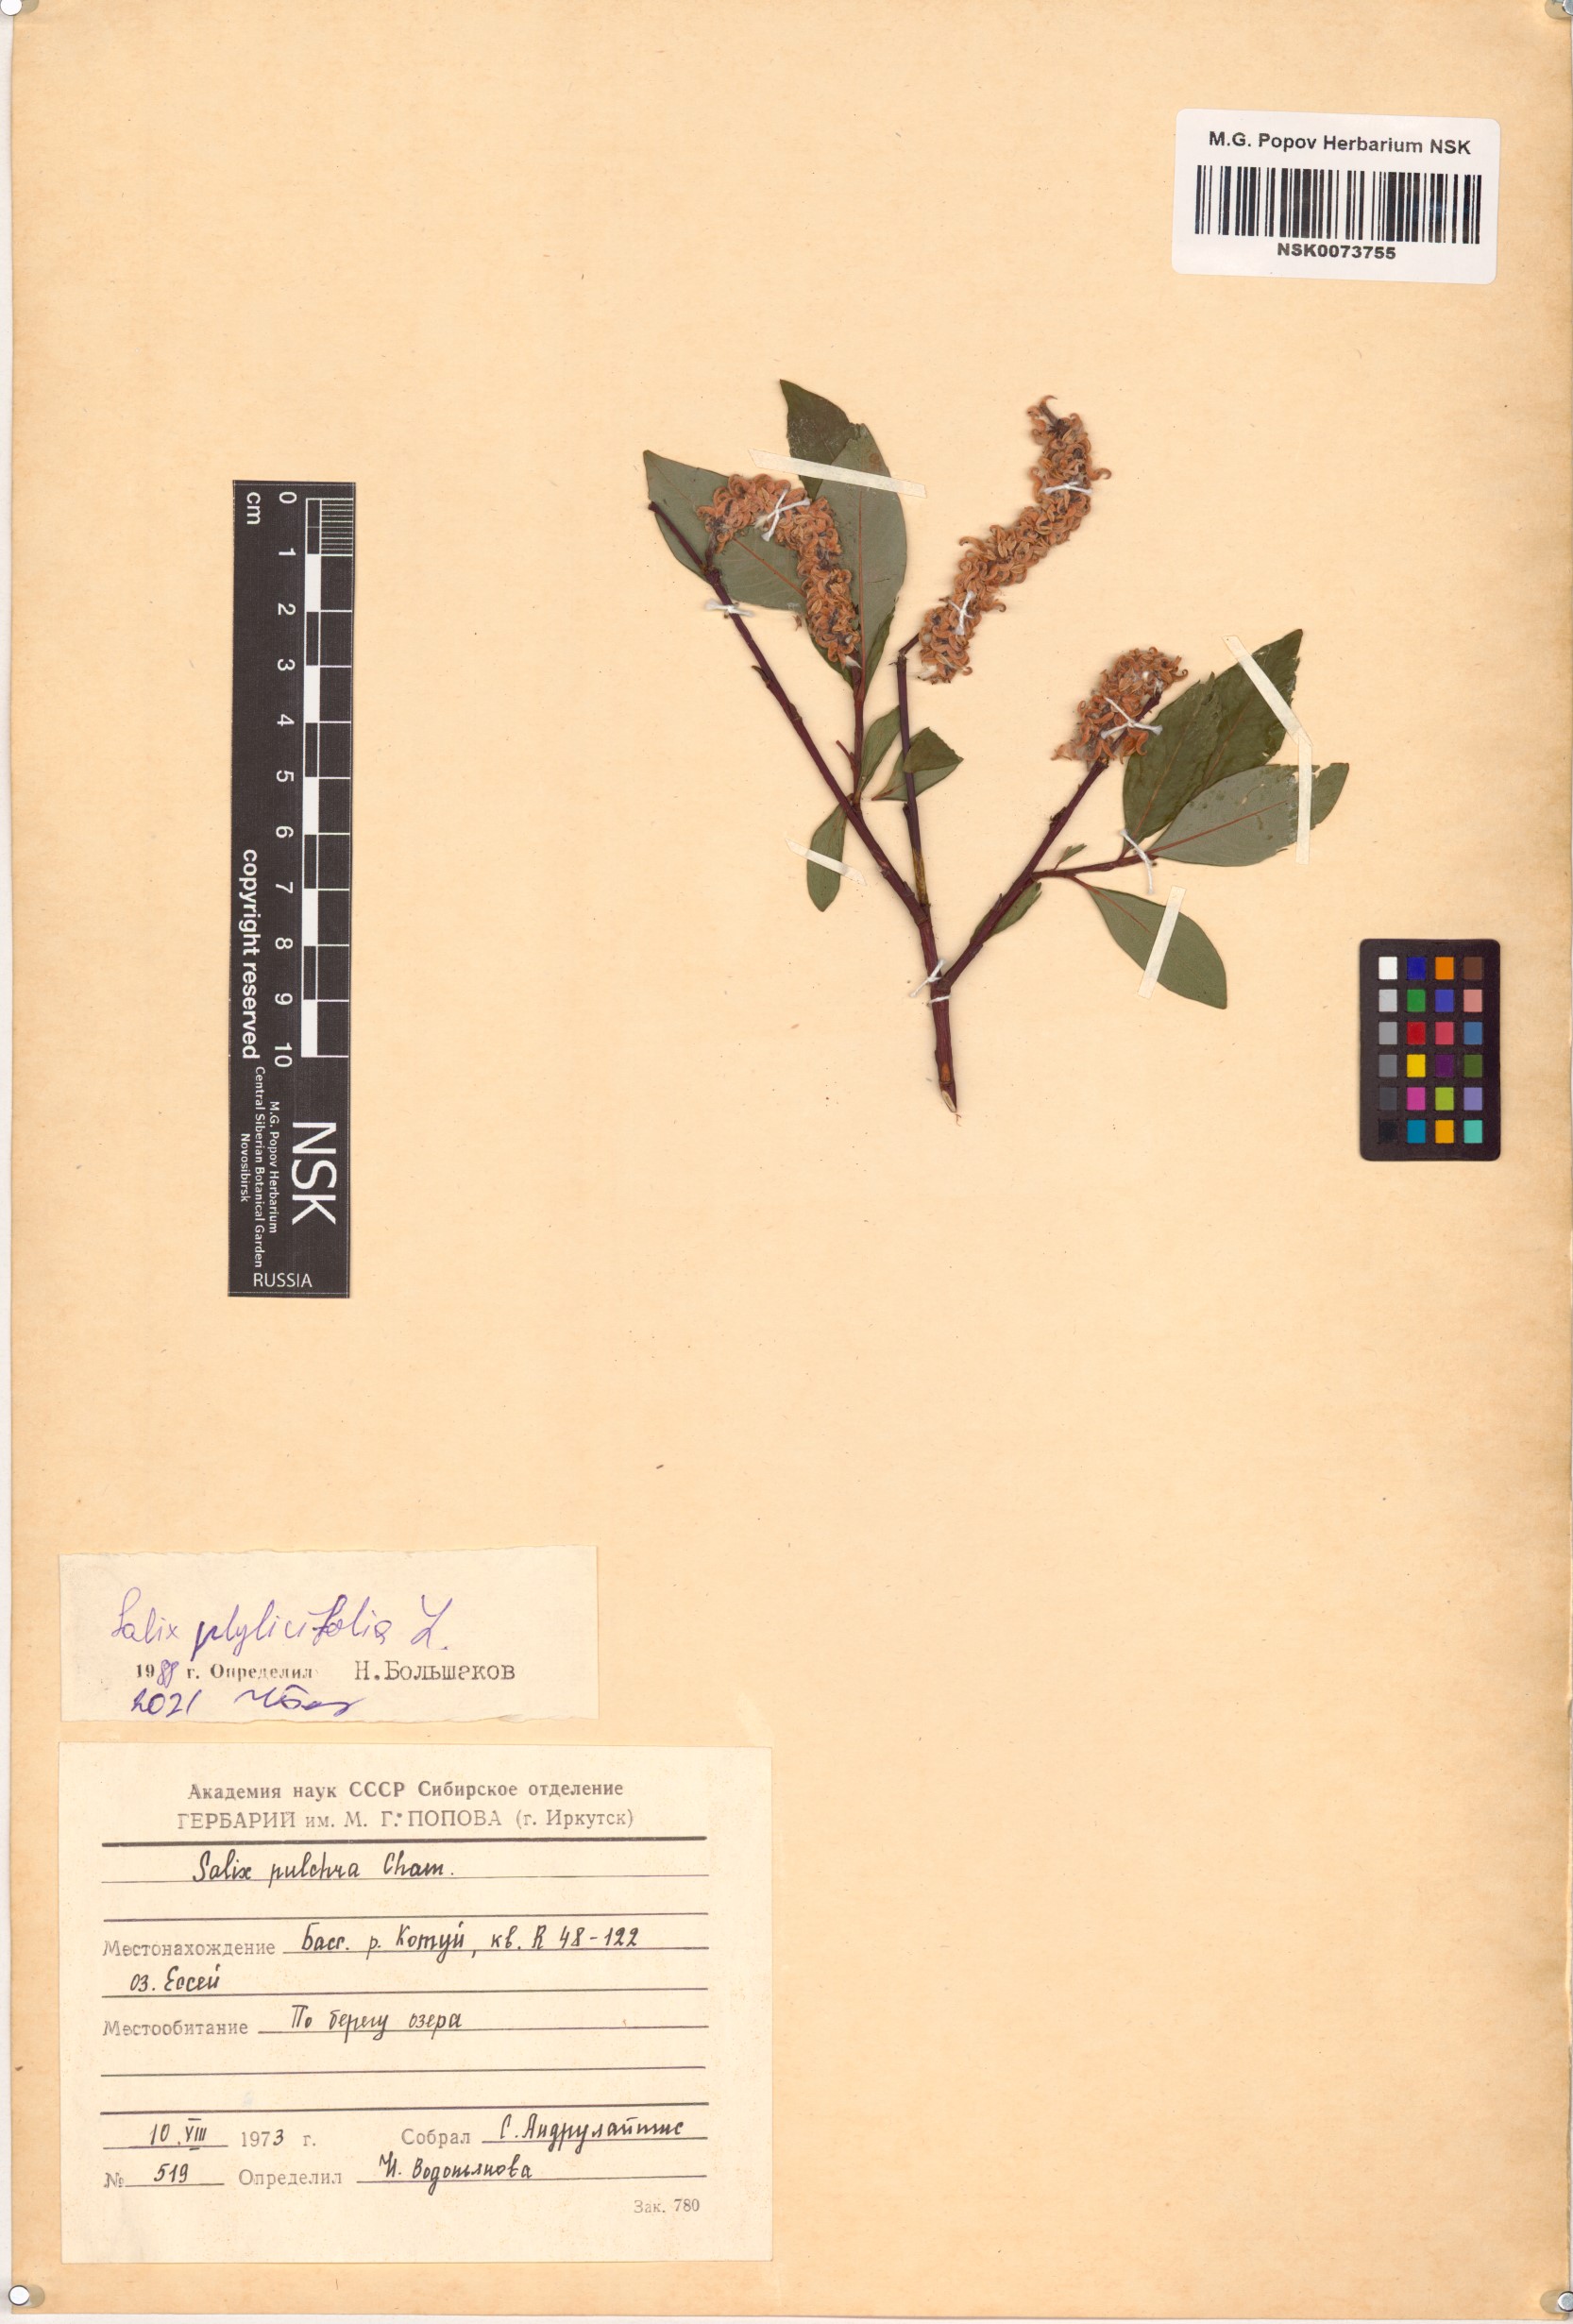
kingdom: Plantae
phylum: Tracheophyta
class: Magnoliopsida
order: Malpighiales
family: Salicaceae
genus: Salix
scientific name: Salix phylicifolia
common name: Tea-leaved willow
